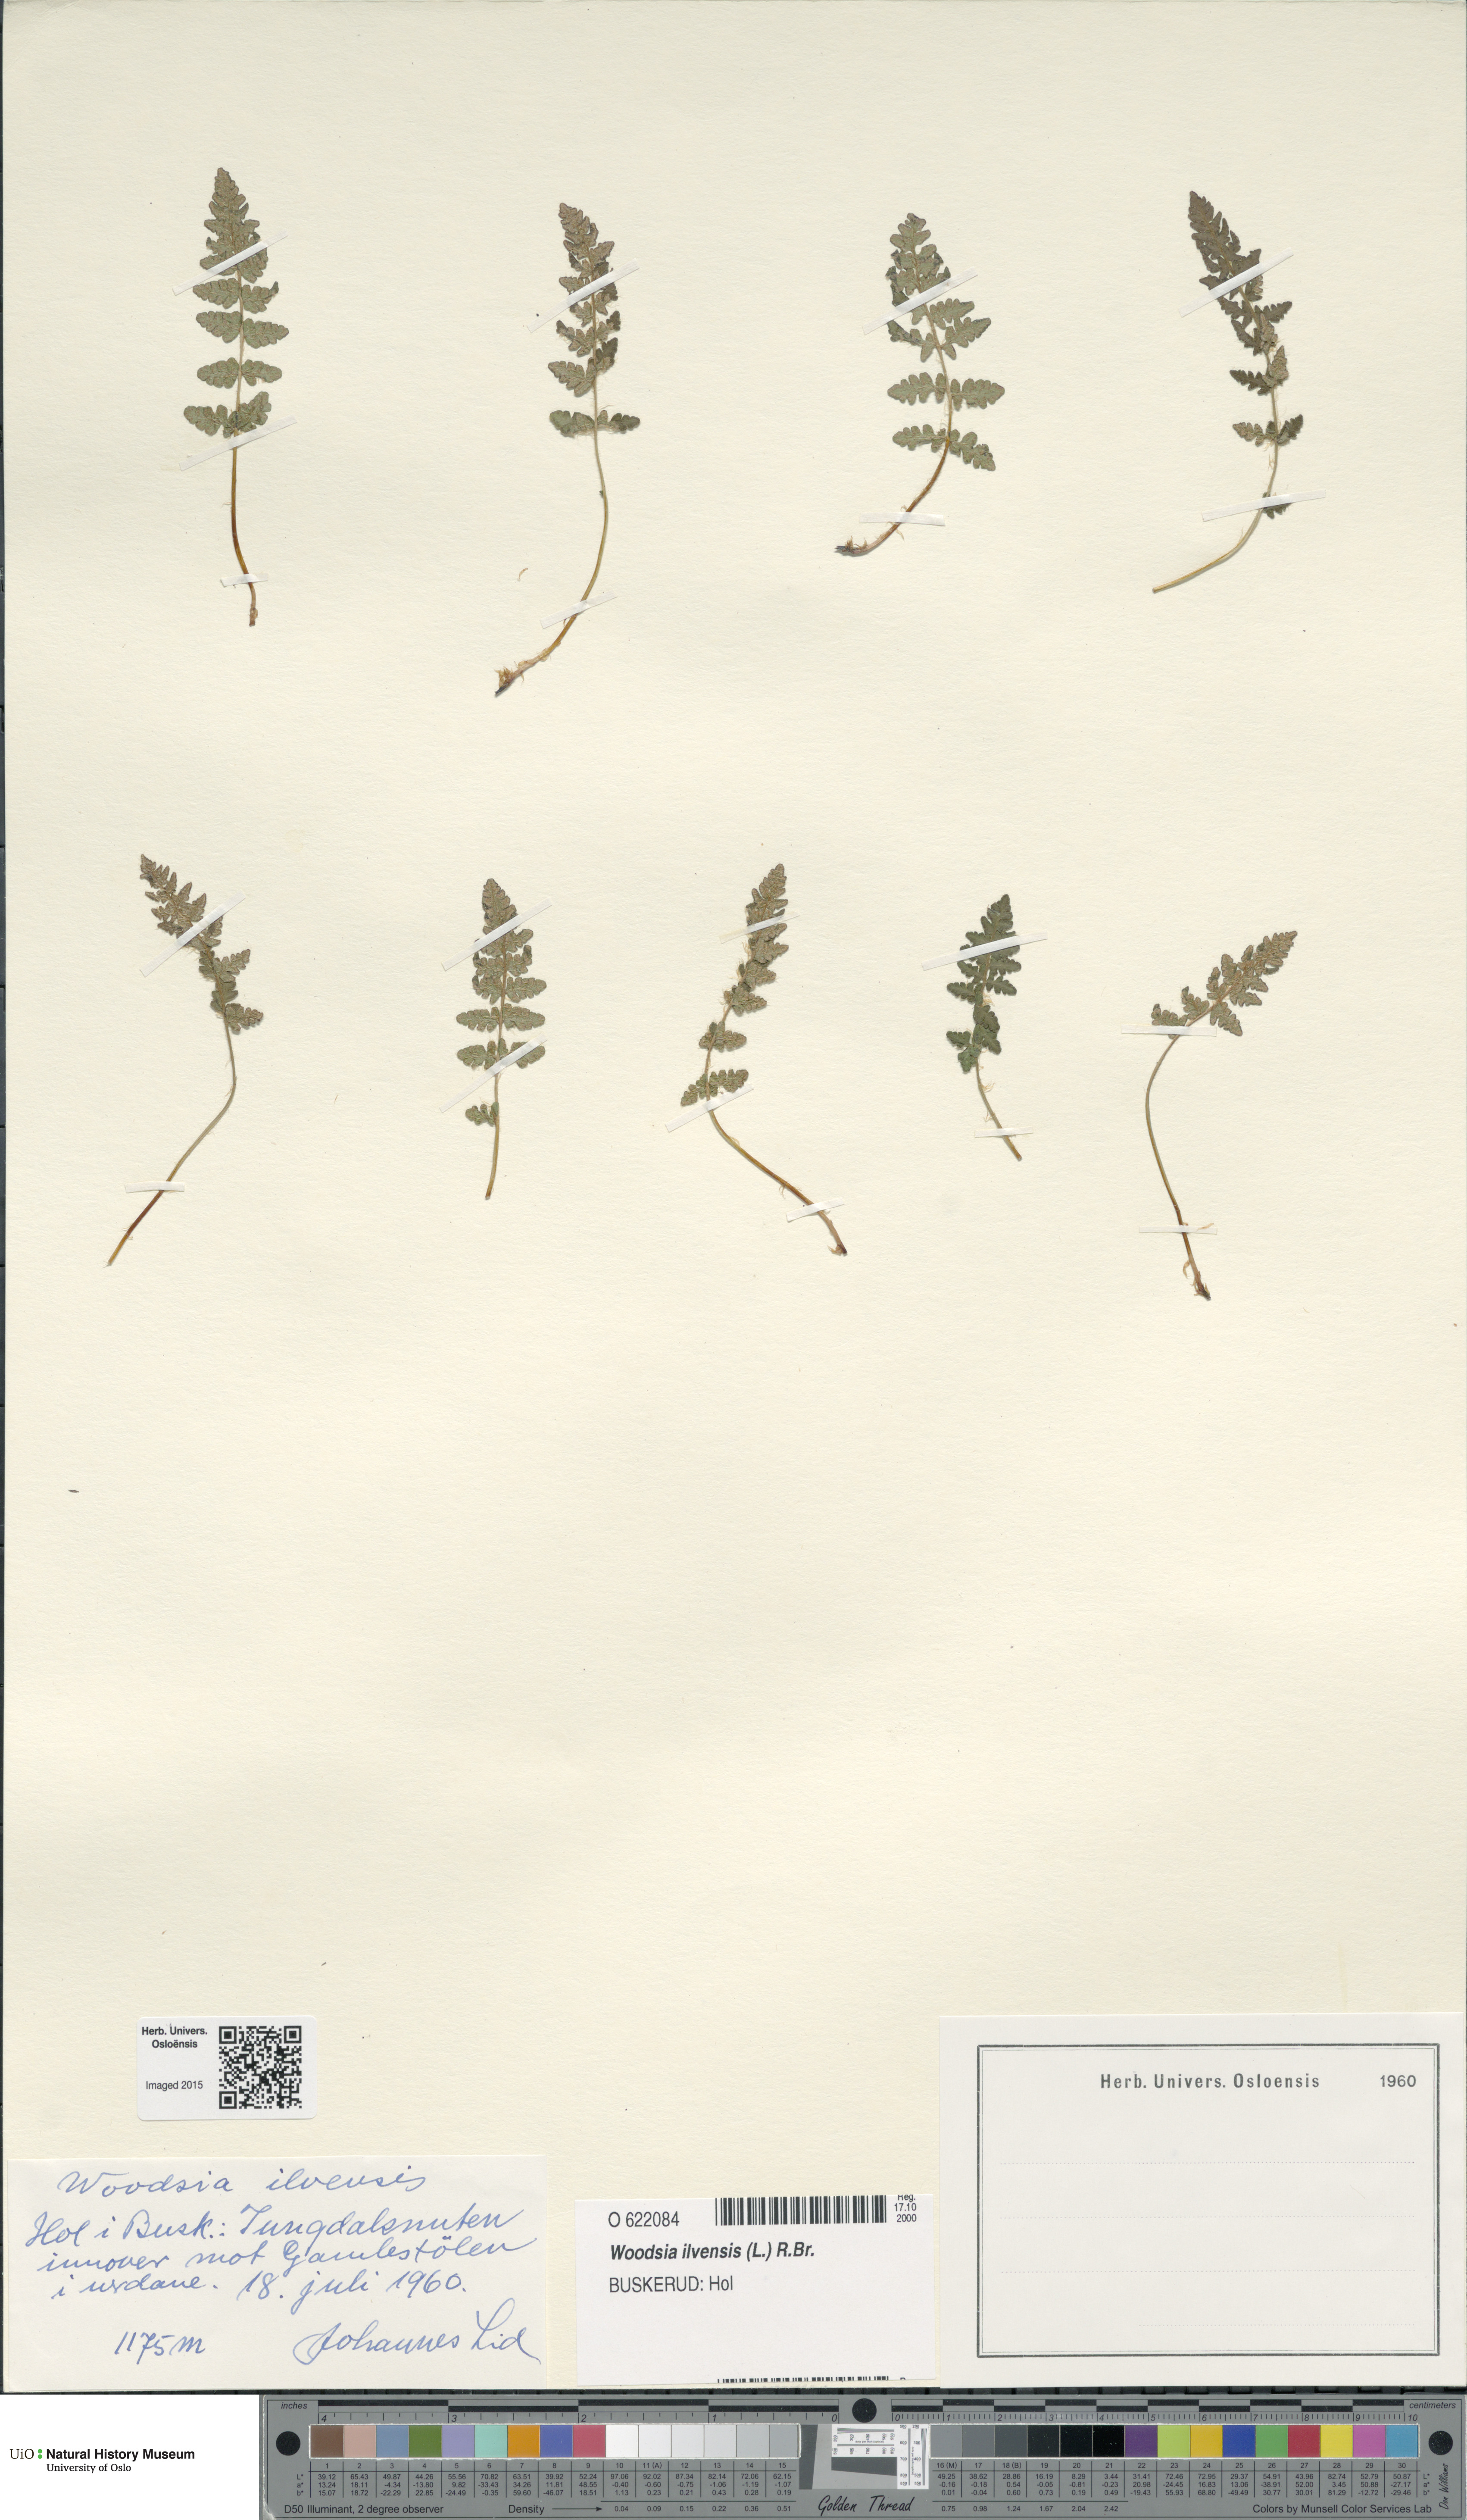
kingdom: Plantae
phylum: Tracheophyta
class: Polypodiopsida
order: Polypodiales
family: Woodsiaceae
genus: Woodsia
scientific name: Woodsia ilvensis
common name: Fragrant woodsia
